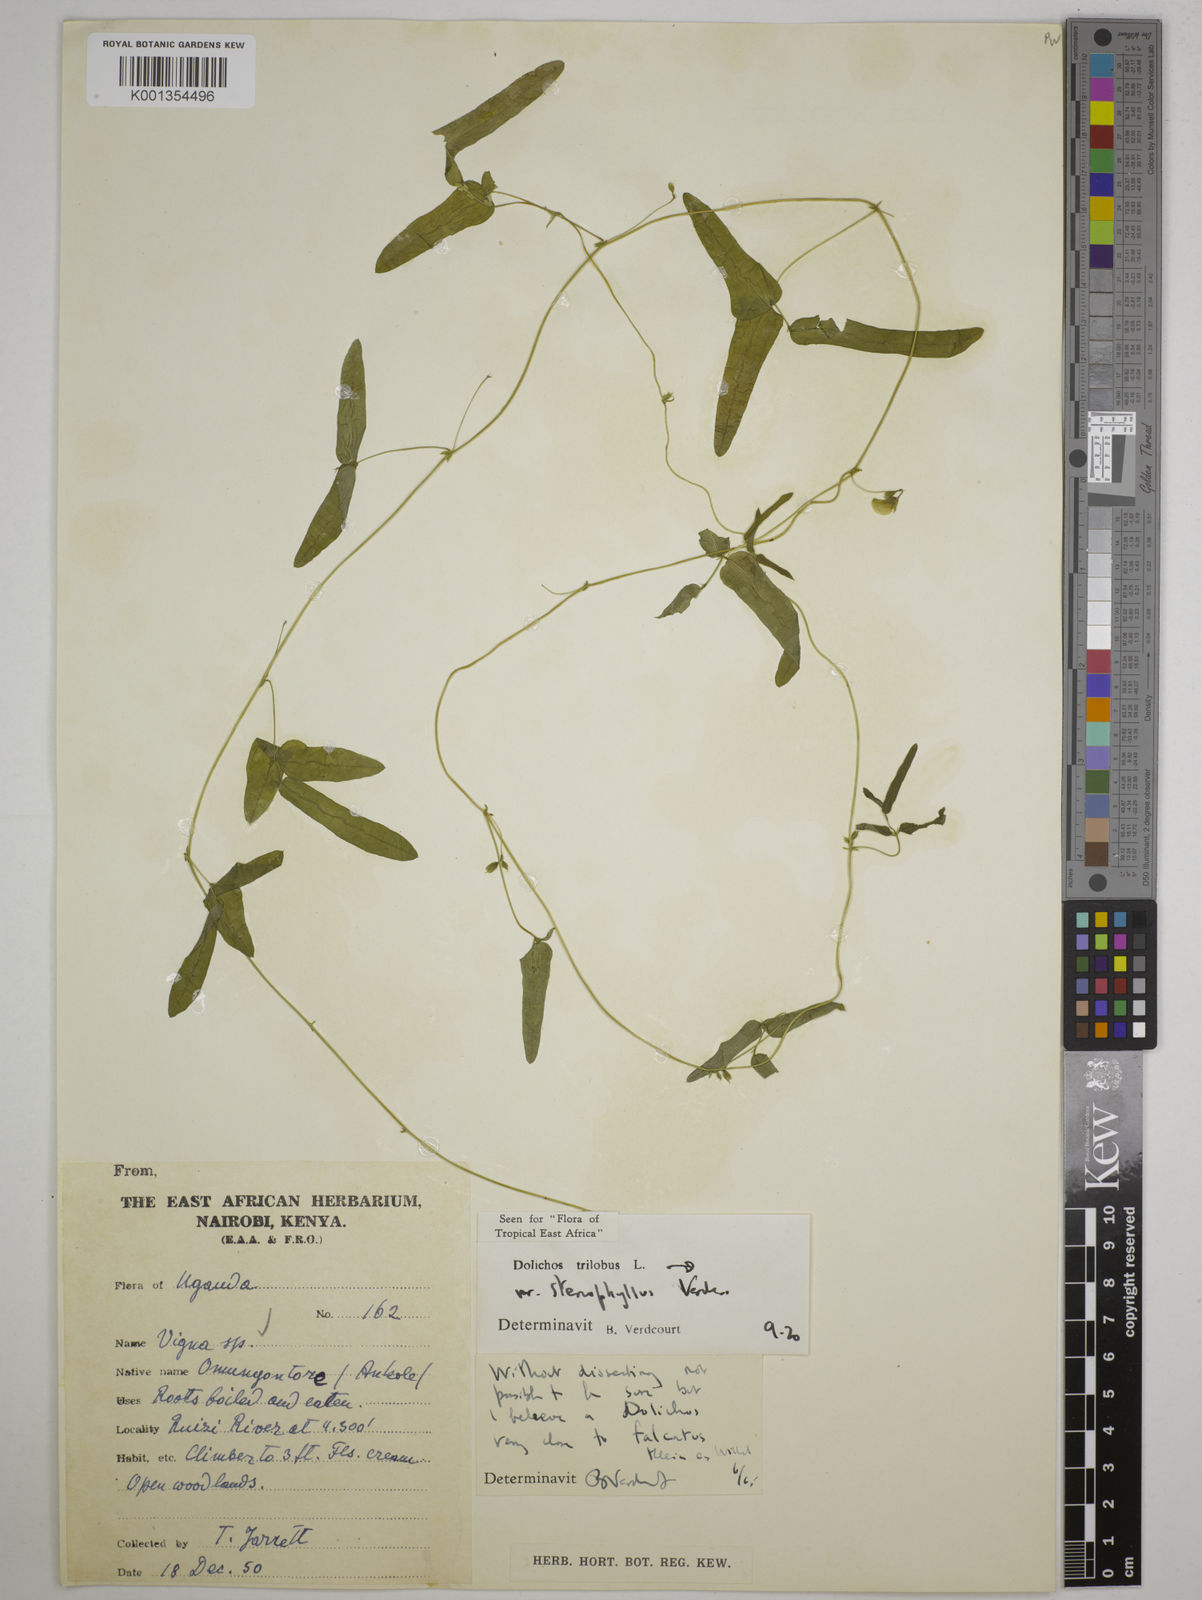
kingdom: Plantae
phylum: Tracheophyta
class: Magnoliopsida
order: Fabales
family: Fabaceae
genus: Dolichos
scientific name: Dolichos
